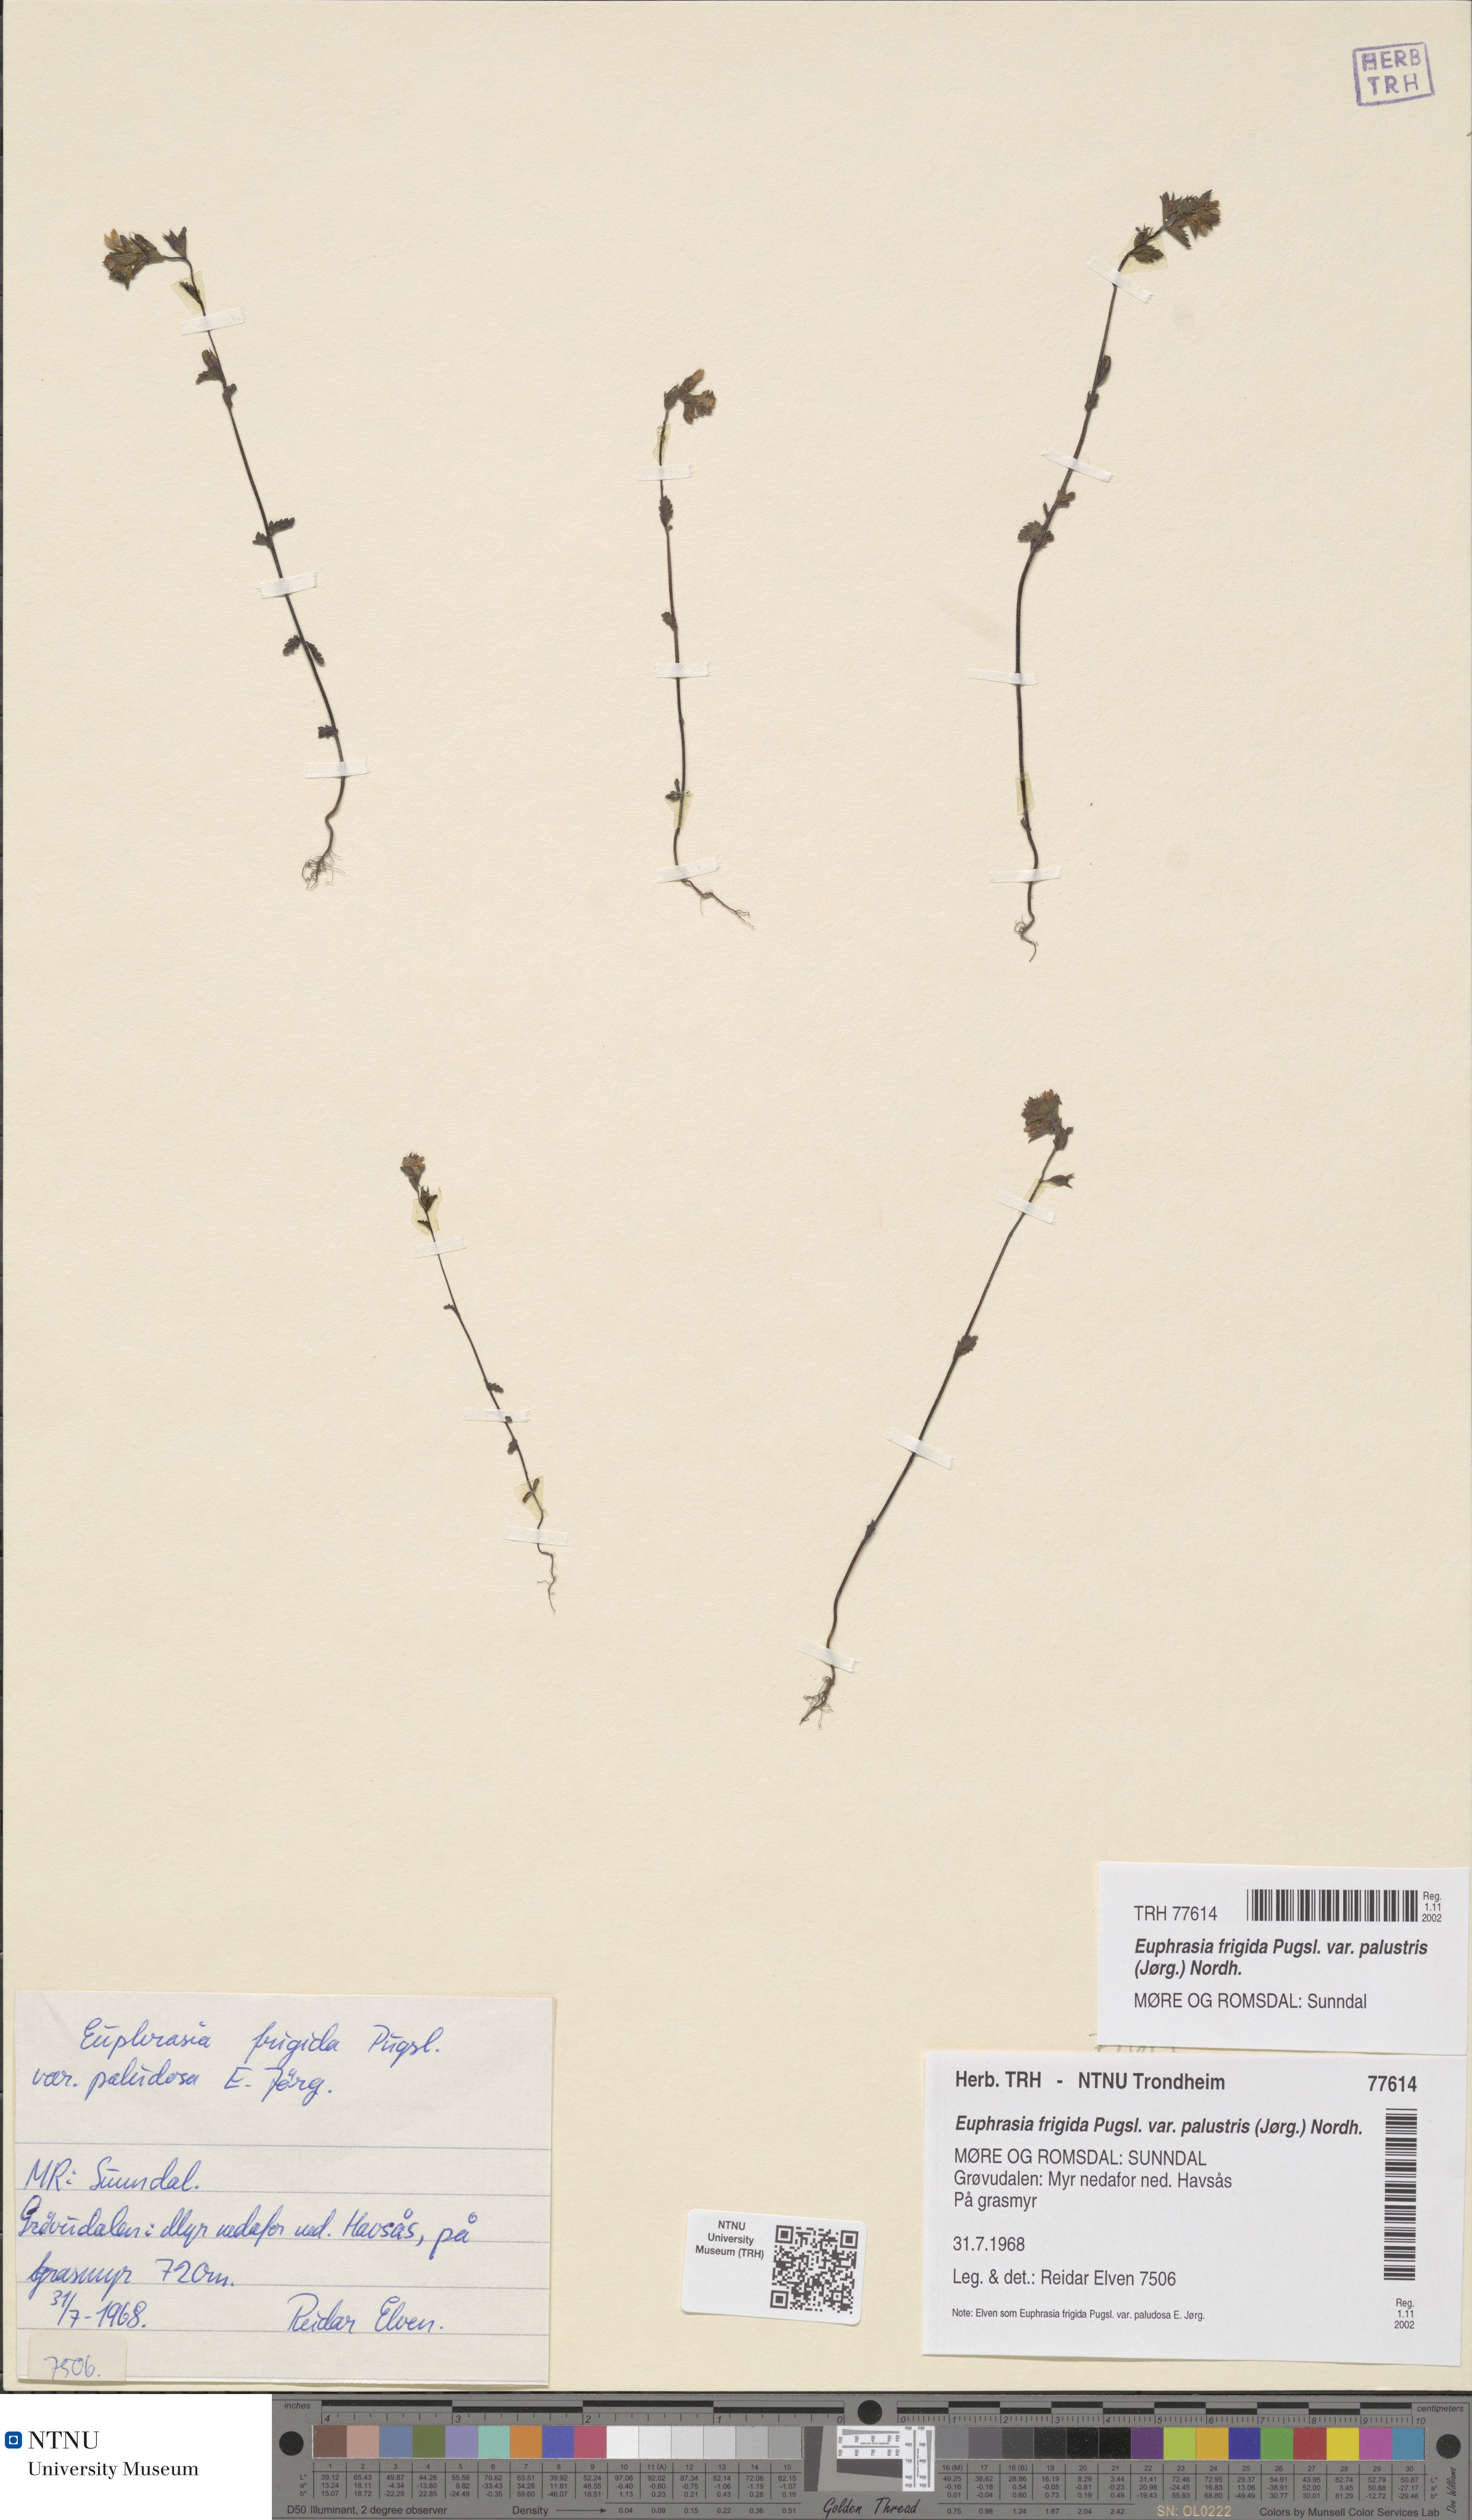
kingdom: Plantae
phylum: Tracheophyta
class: Magnoliopsida
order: Lamiales
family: Orobanchaceae
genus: Euphrasia
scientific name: Euphrasia wettsteinii
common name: Wettstein's eyebright
